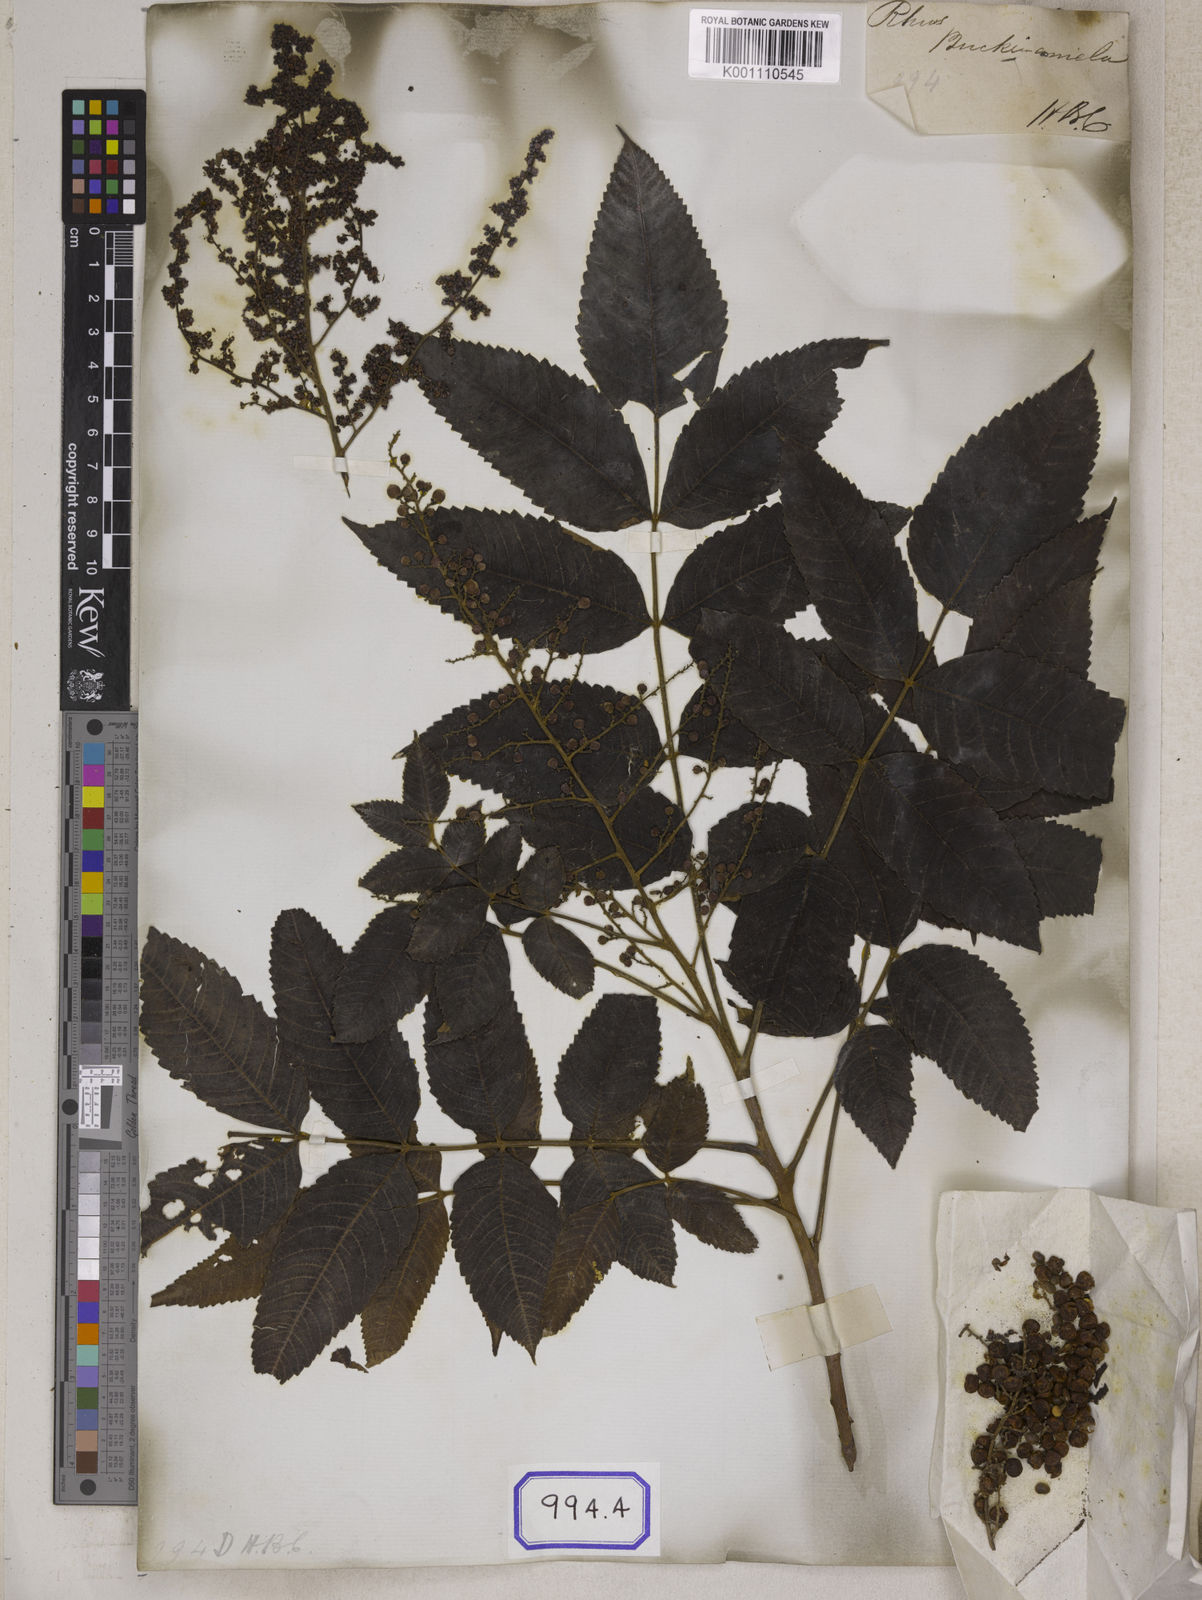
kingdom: Plantae
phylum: Tracheophyta
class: Magnoliopsida
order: Sapindales
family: Simaroubaceae
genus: Brucea
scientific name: Brucea javanica
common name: Macassar kernels
